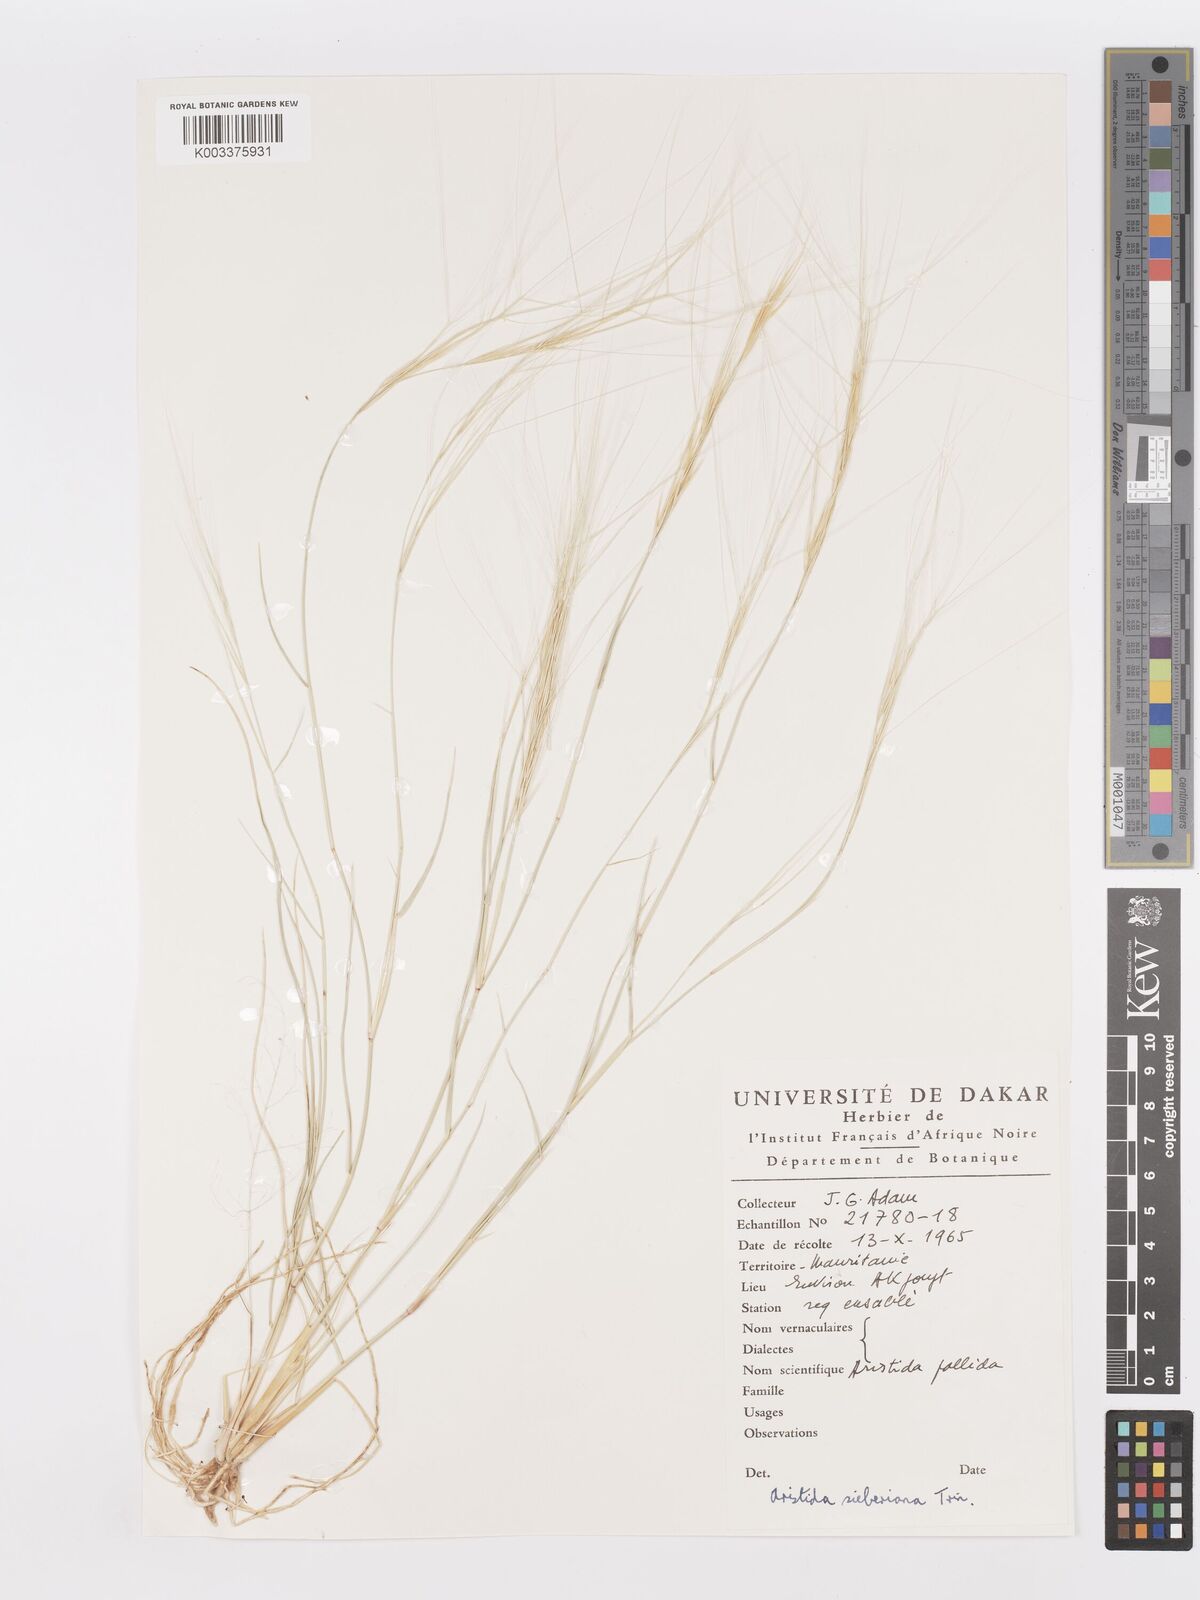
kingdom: Plantae
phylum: Tracheophyta
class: Liliopsida
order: Poales
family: Poaceae
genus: Aristida
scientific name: Aristida sieberiana
